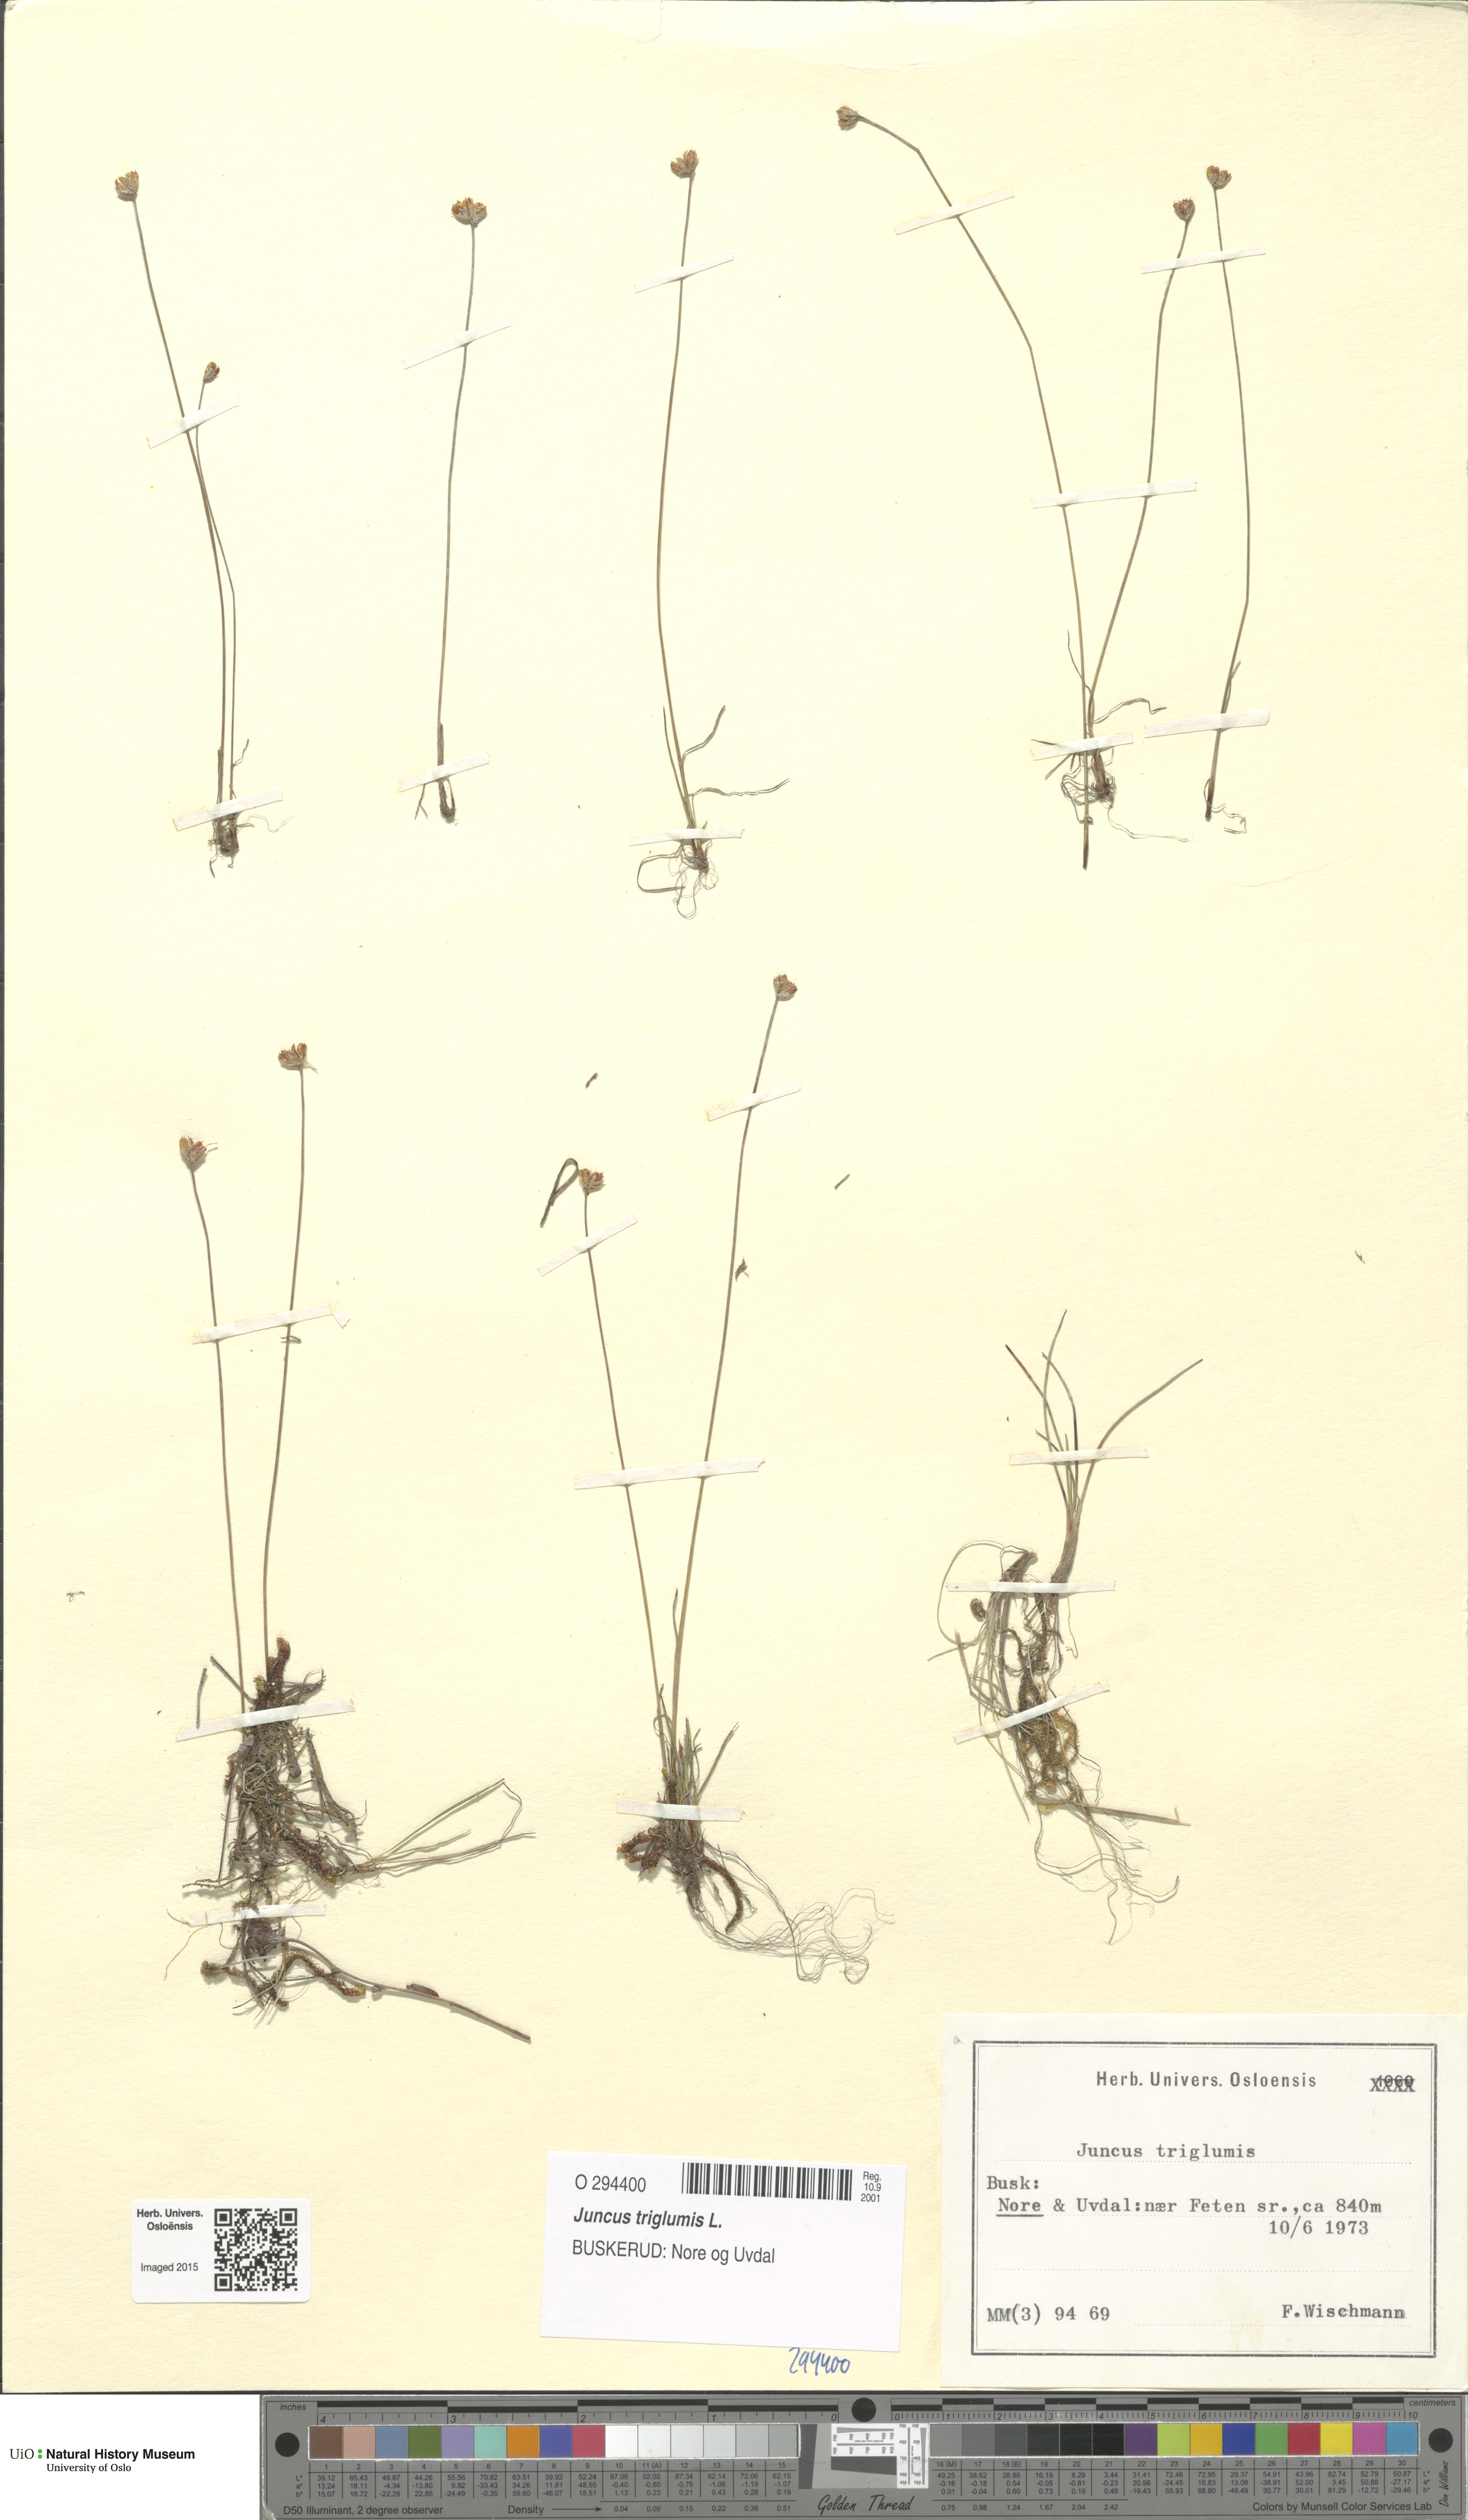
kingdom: Plantae
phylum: Tracheophyta
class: Liliopsida
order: Poales
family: Juncaceae
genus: Juncus
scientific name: Juncus triglumis
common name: Three-flowered rush
